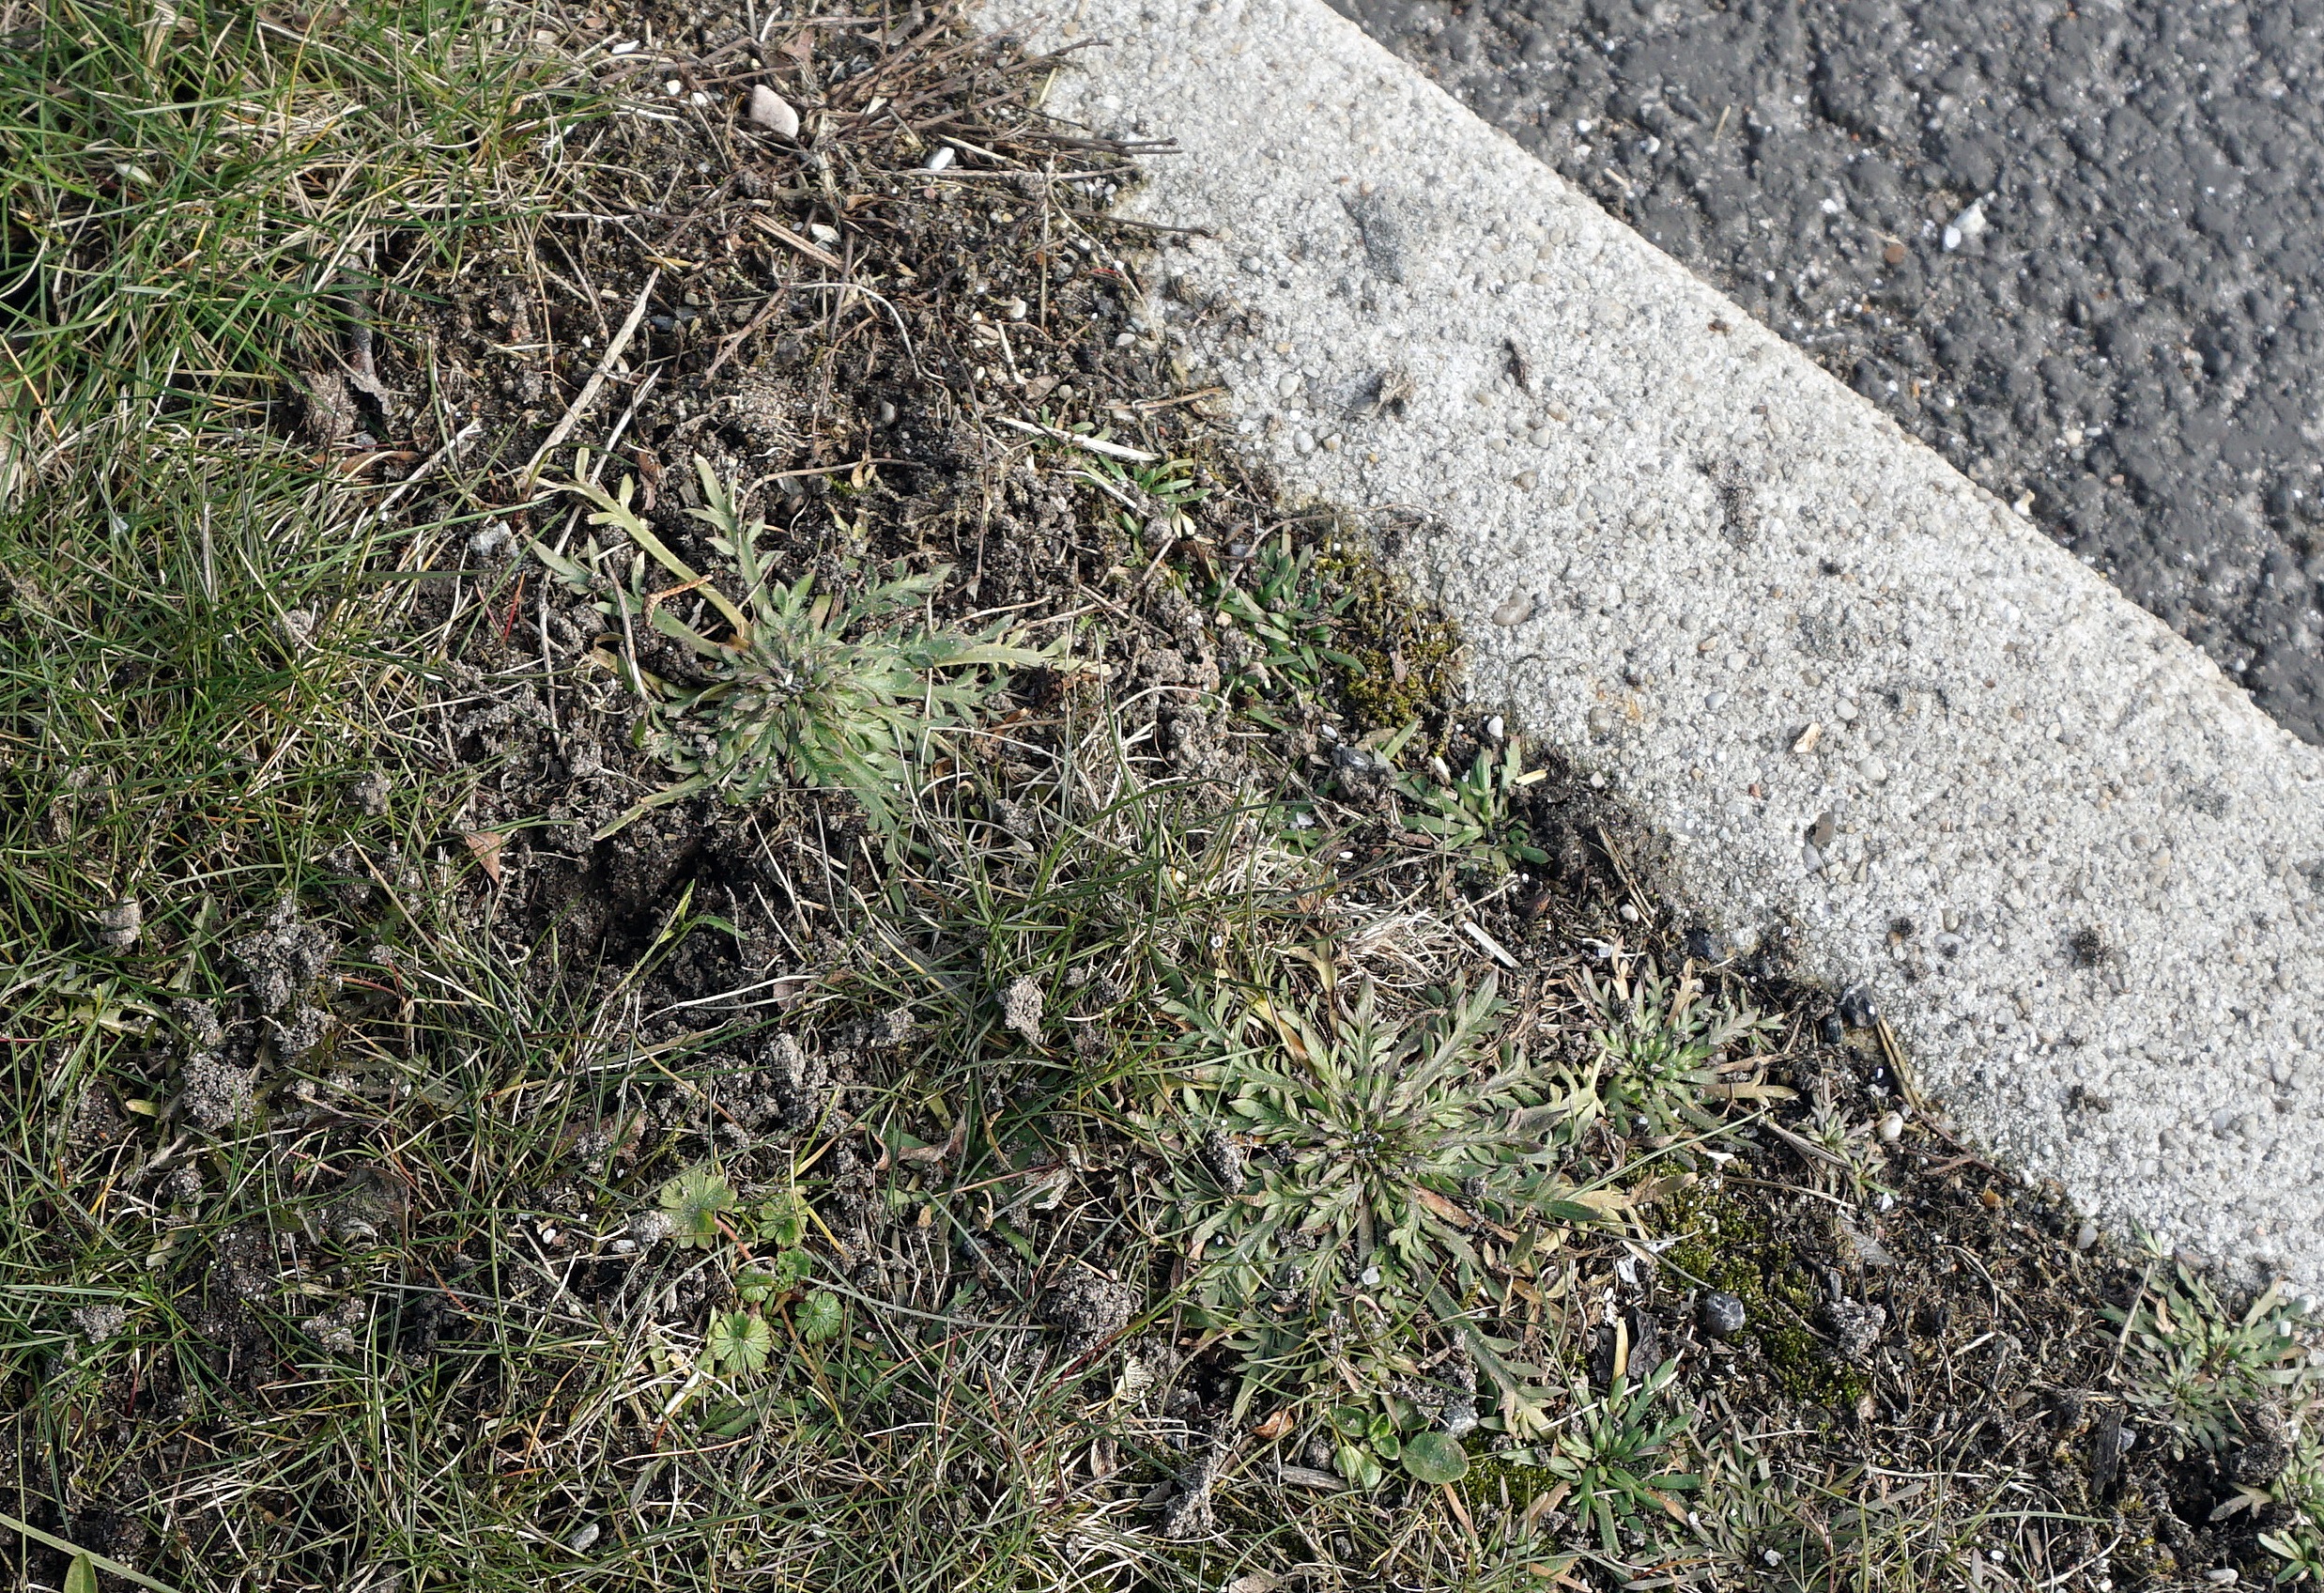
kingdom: Plantae
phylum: Tracheophyta
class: Magnoliopsida
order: Lamiales
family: Plantaginaceae
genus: Plantago
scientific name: Plantago coronopus
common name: Fliget vejbred
